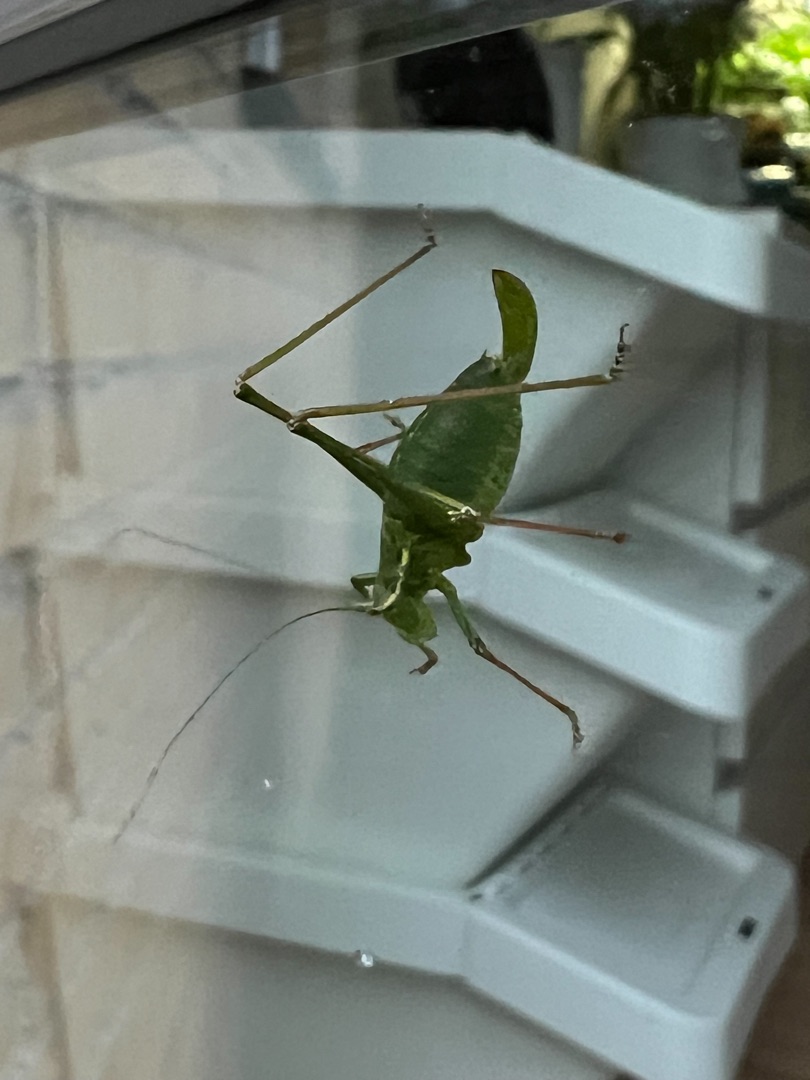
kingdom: Animalia
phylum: Arthropoda
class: Insecta
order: Orthoptera
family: Tettigoniidae
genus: Leptophyes
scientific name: Leptophyes punctatissima
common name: Krumknivgræshoppe
